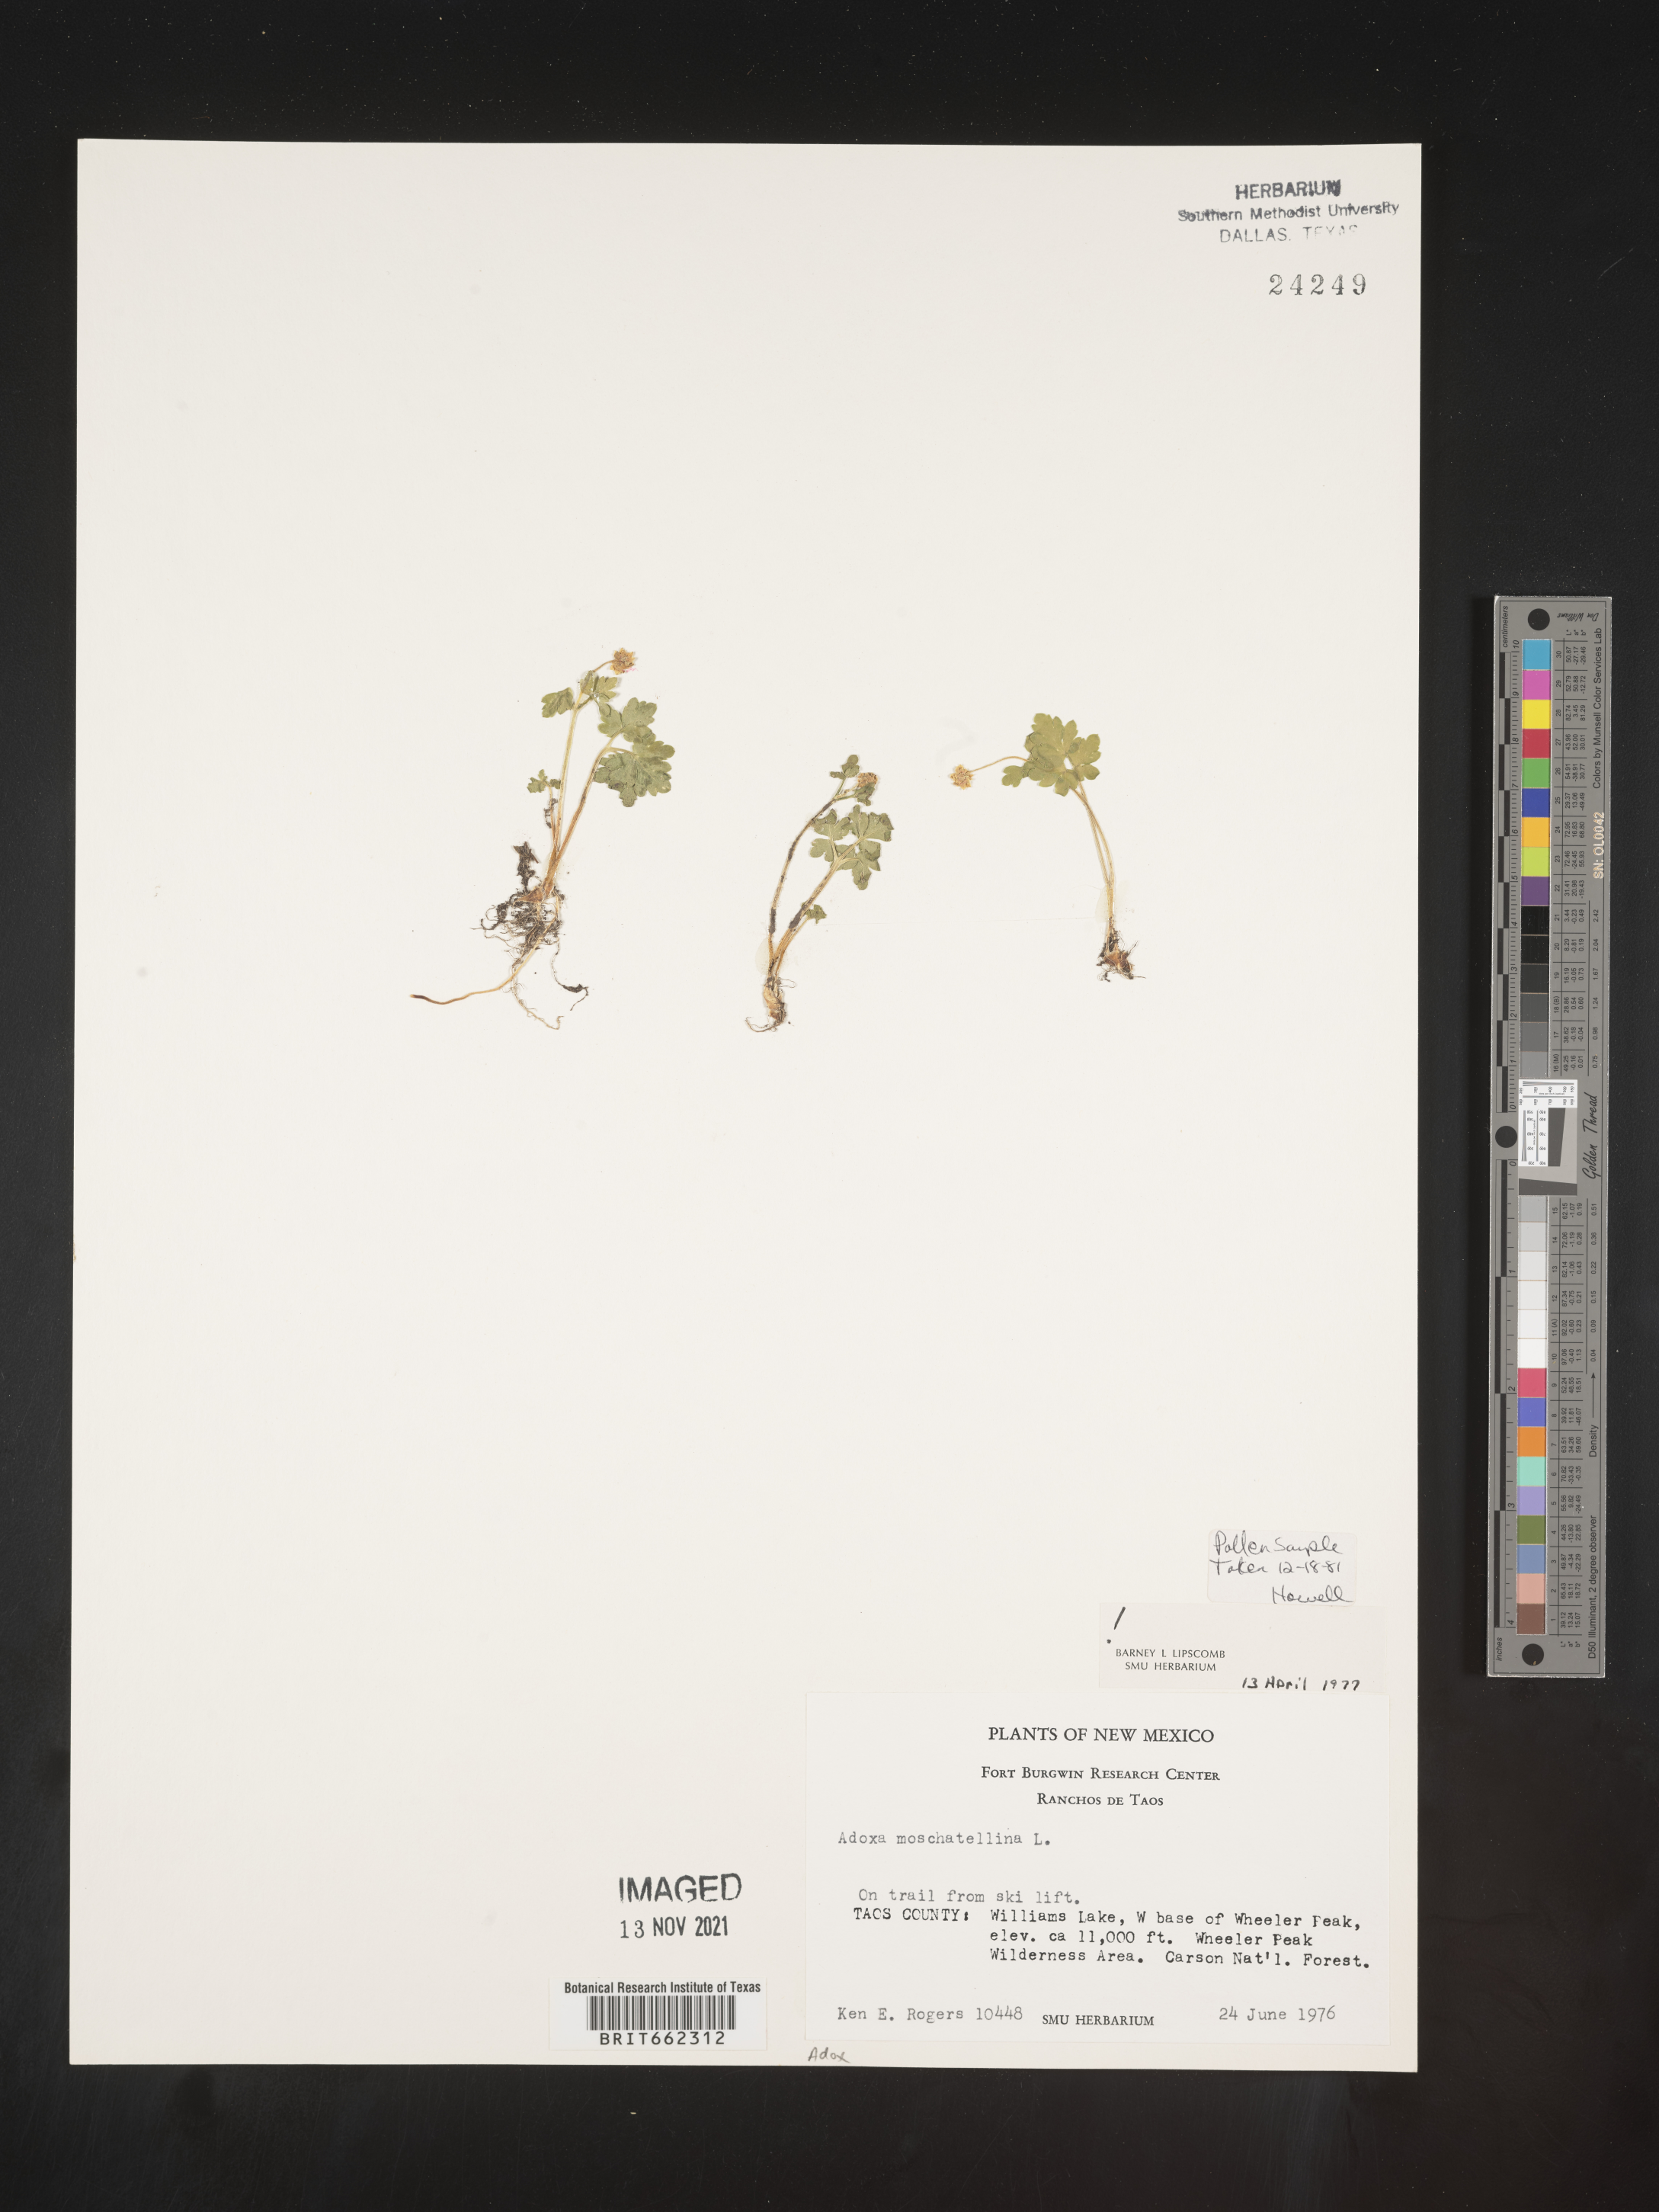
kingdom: Plantae
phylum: Tracheophyta
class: Magnoliopsida
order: Dipsacales
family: Viburnaceae
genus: Adoxa
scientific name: Adoxa
